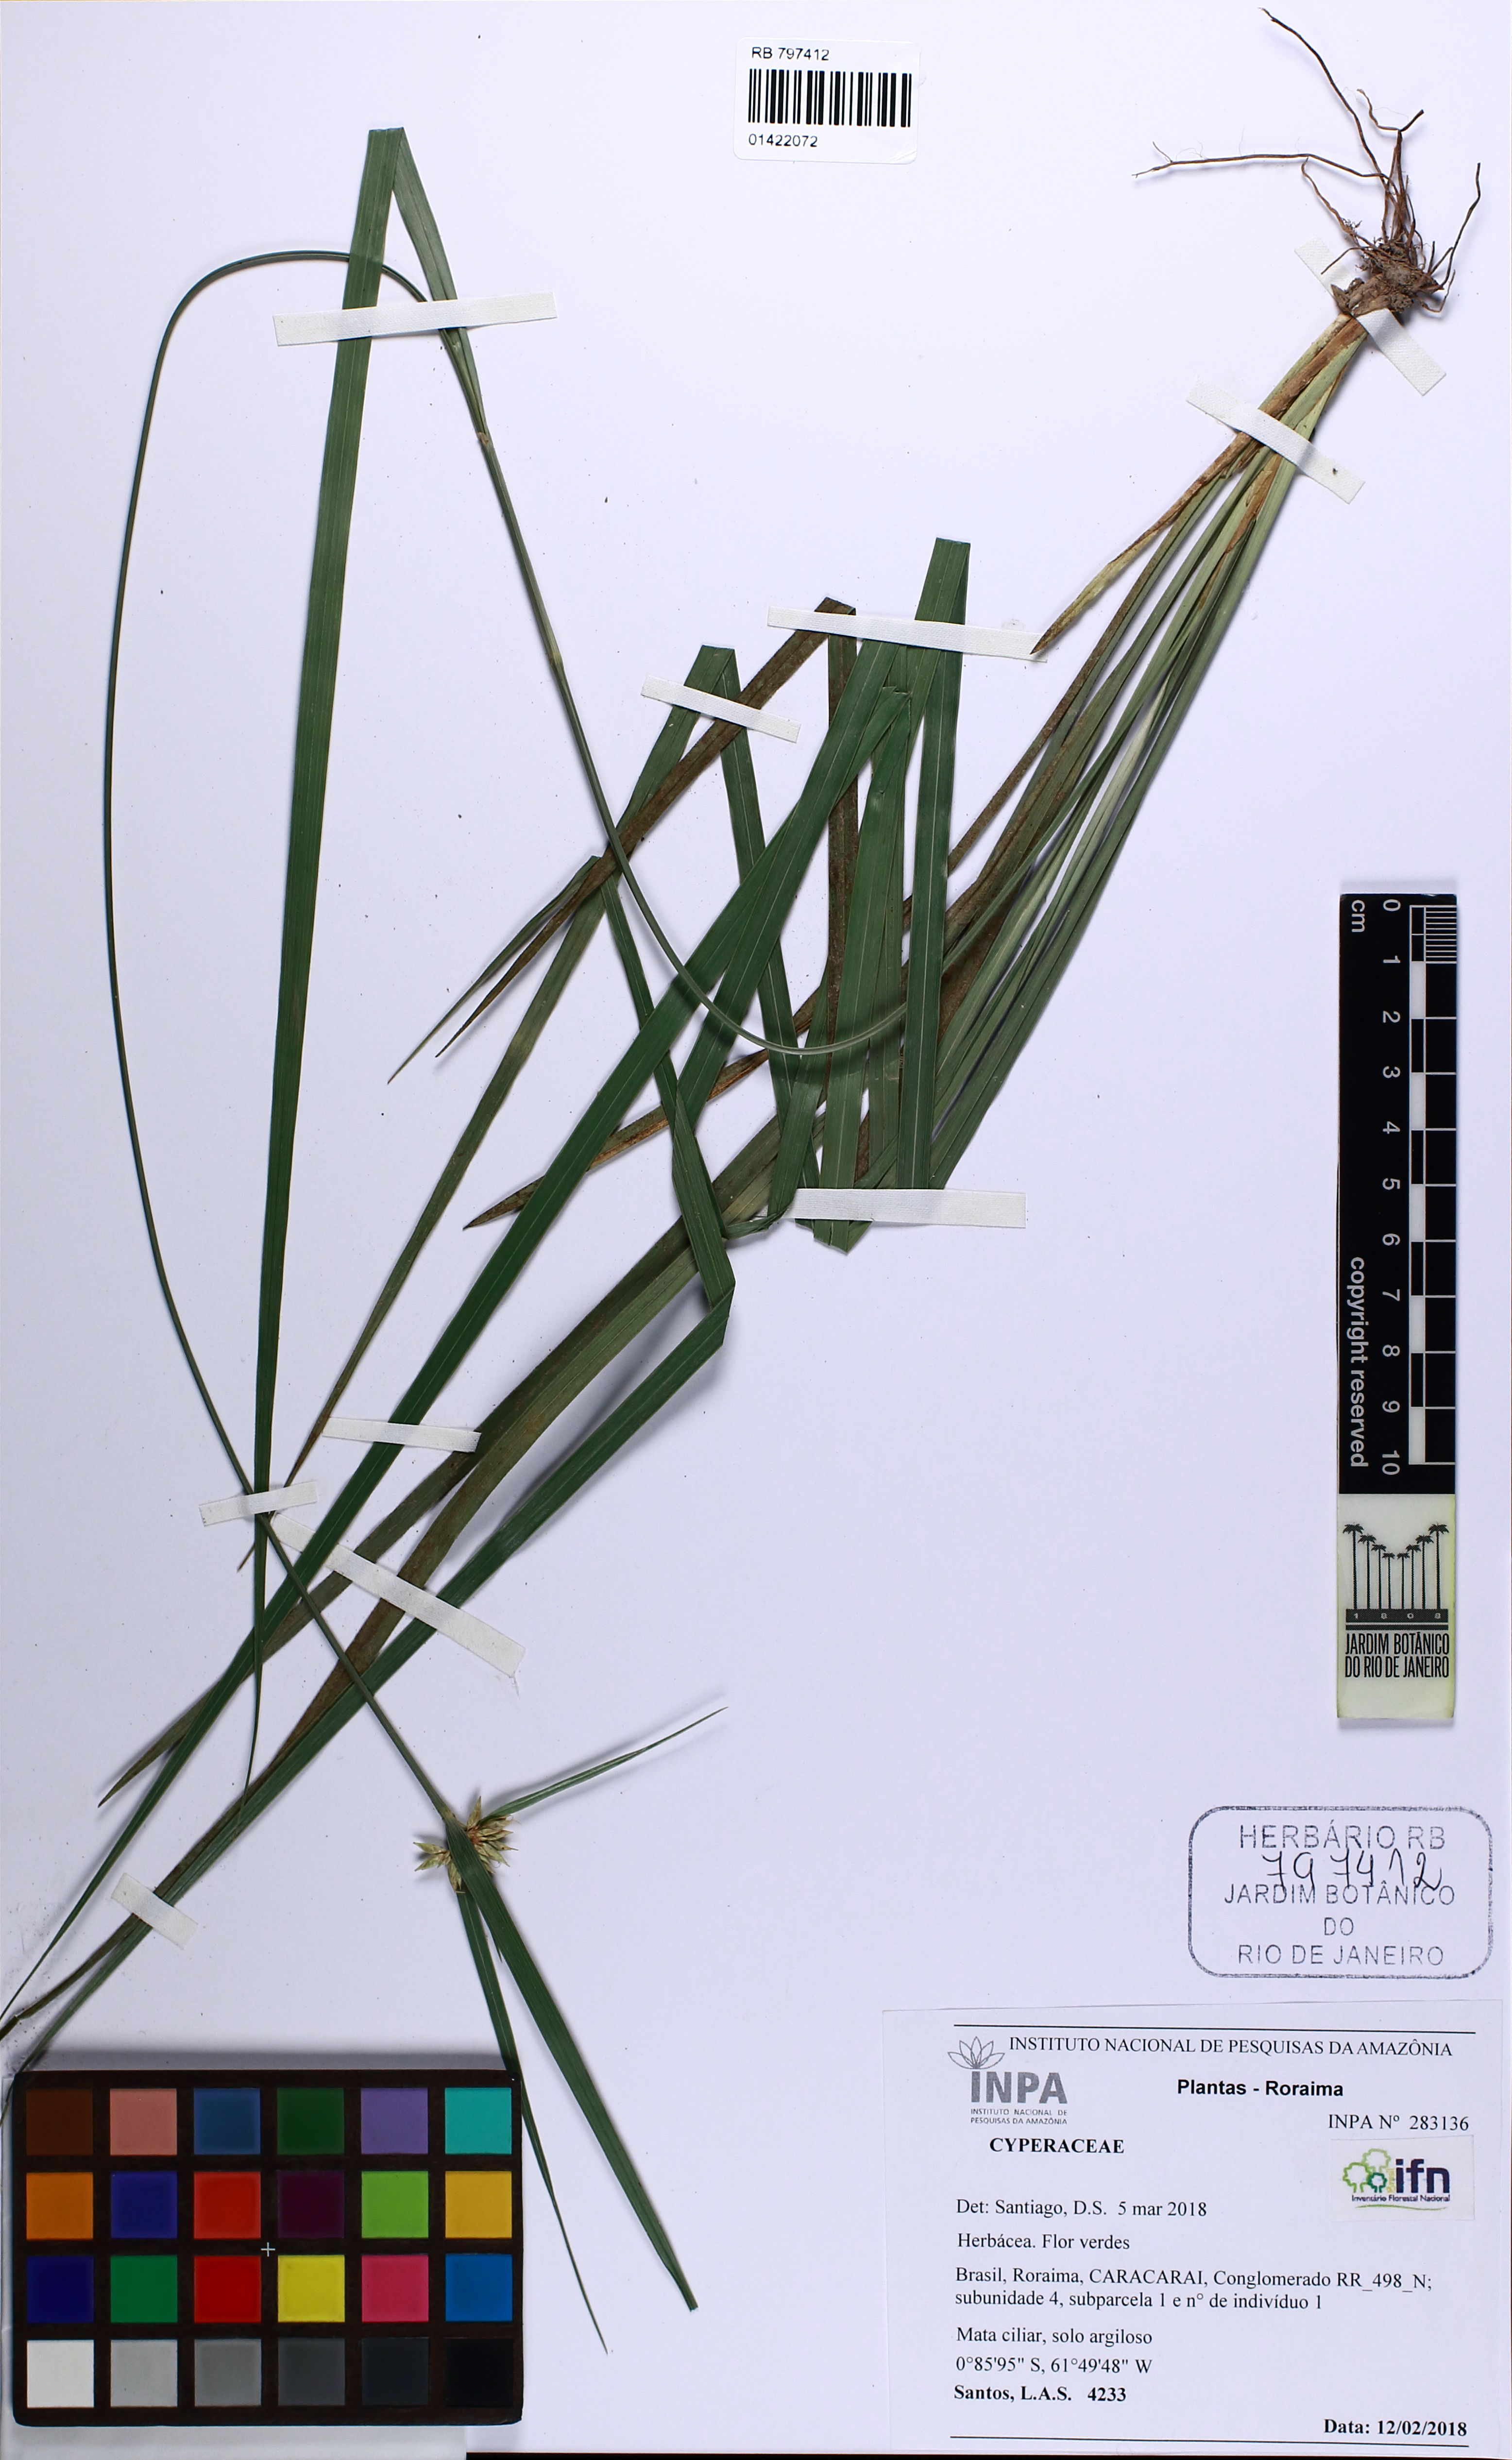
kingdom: Plantae
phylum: Tracheophyta
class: Liliopsida
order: Poales
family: Cyperaceae
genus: Rhynchospora
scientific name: Rhynchospora amazonica
